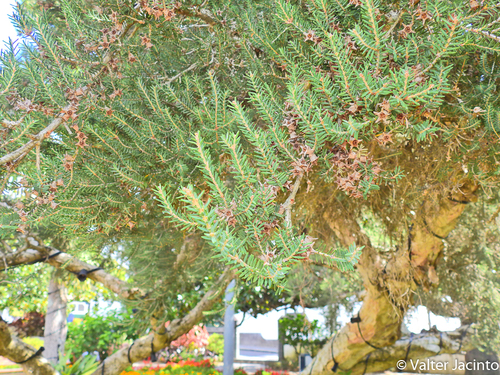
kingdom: Plantae
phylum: Tracheophyta
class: Magnoliopsida
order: Ericales
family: Ericaceae
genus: Erica
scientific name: Erica azorica
